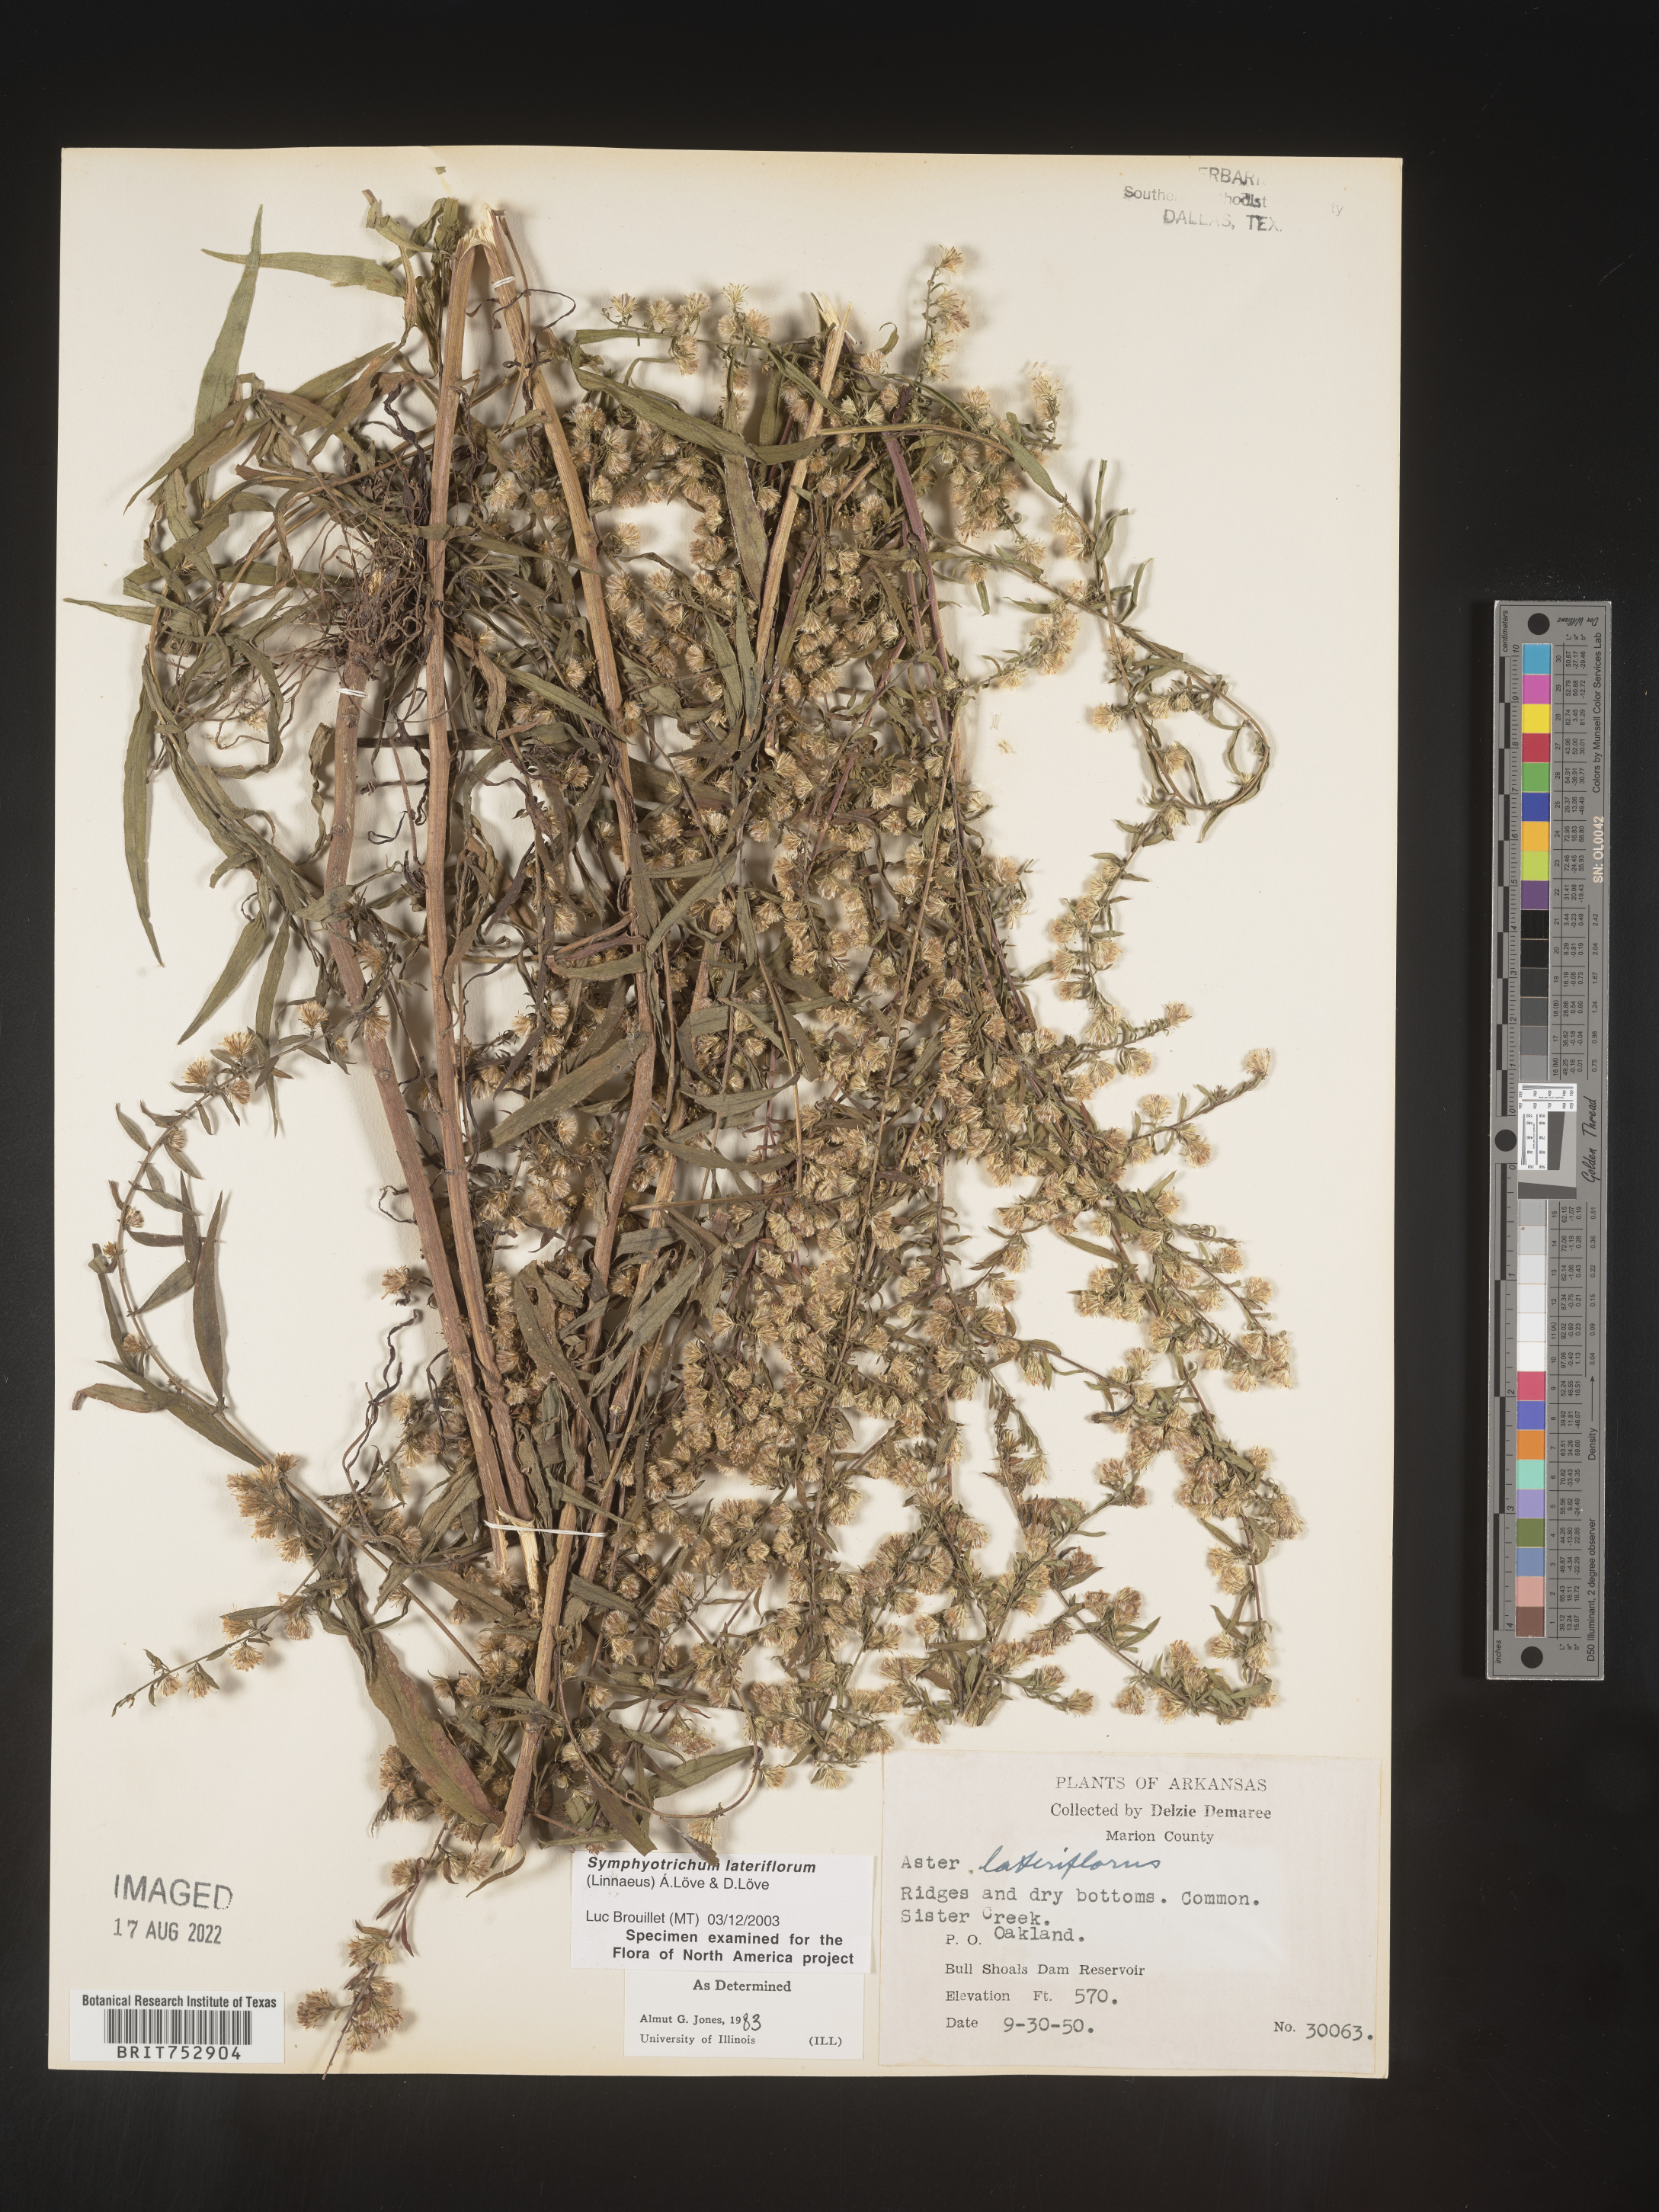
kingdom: Plantae
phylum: Tracheophyta
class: Magnoliopsida
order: Asterales
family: Asteraceae
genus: Symphyotrichum
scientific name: Symphyotrichum lateriflorum
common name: Calico aster
